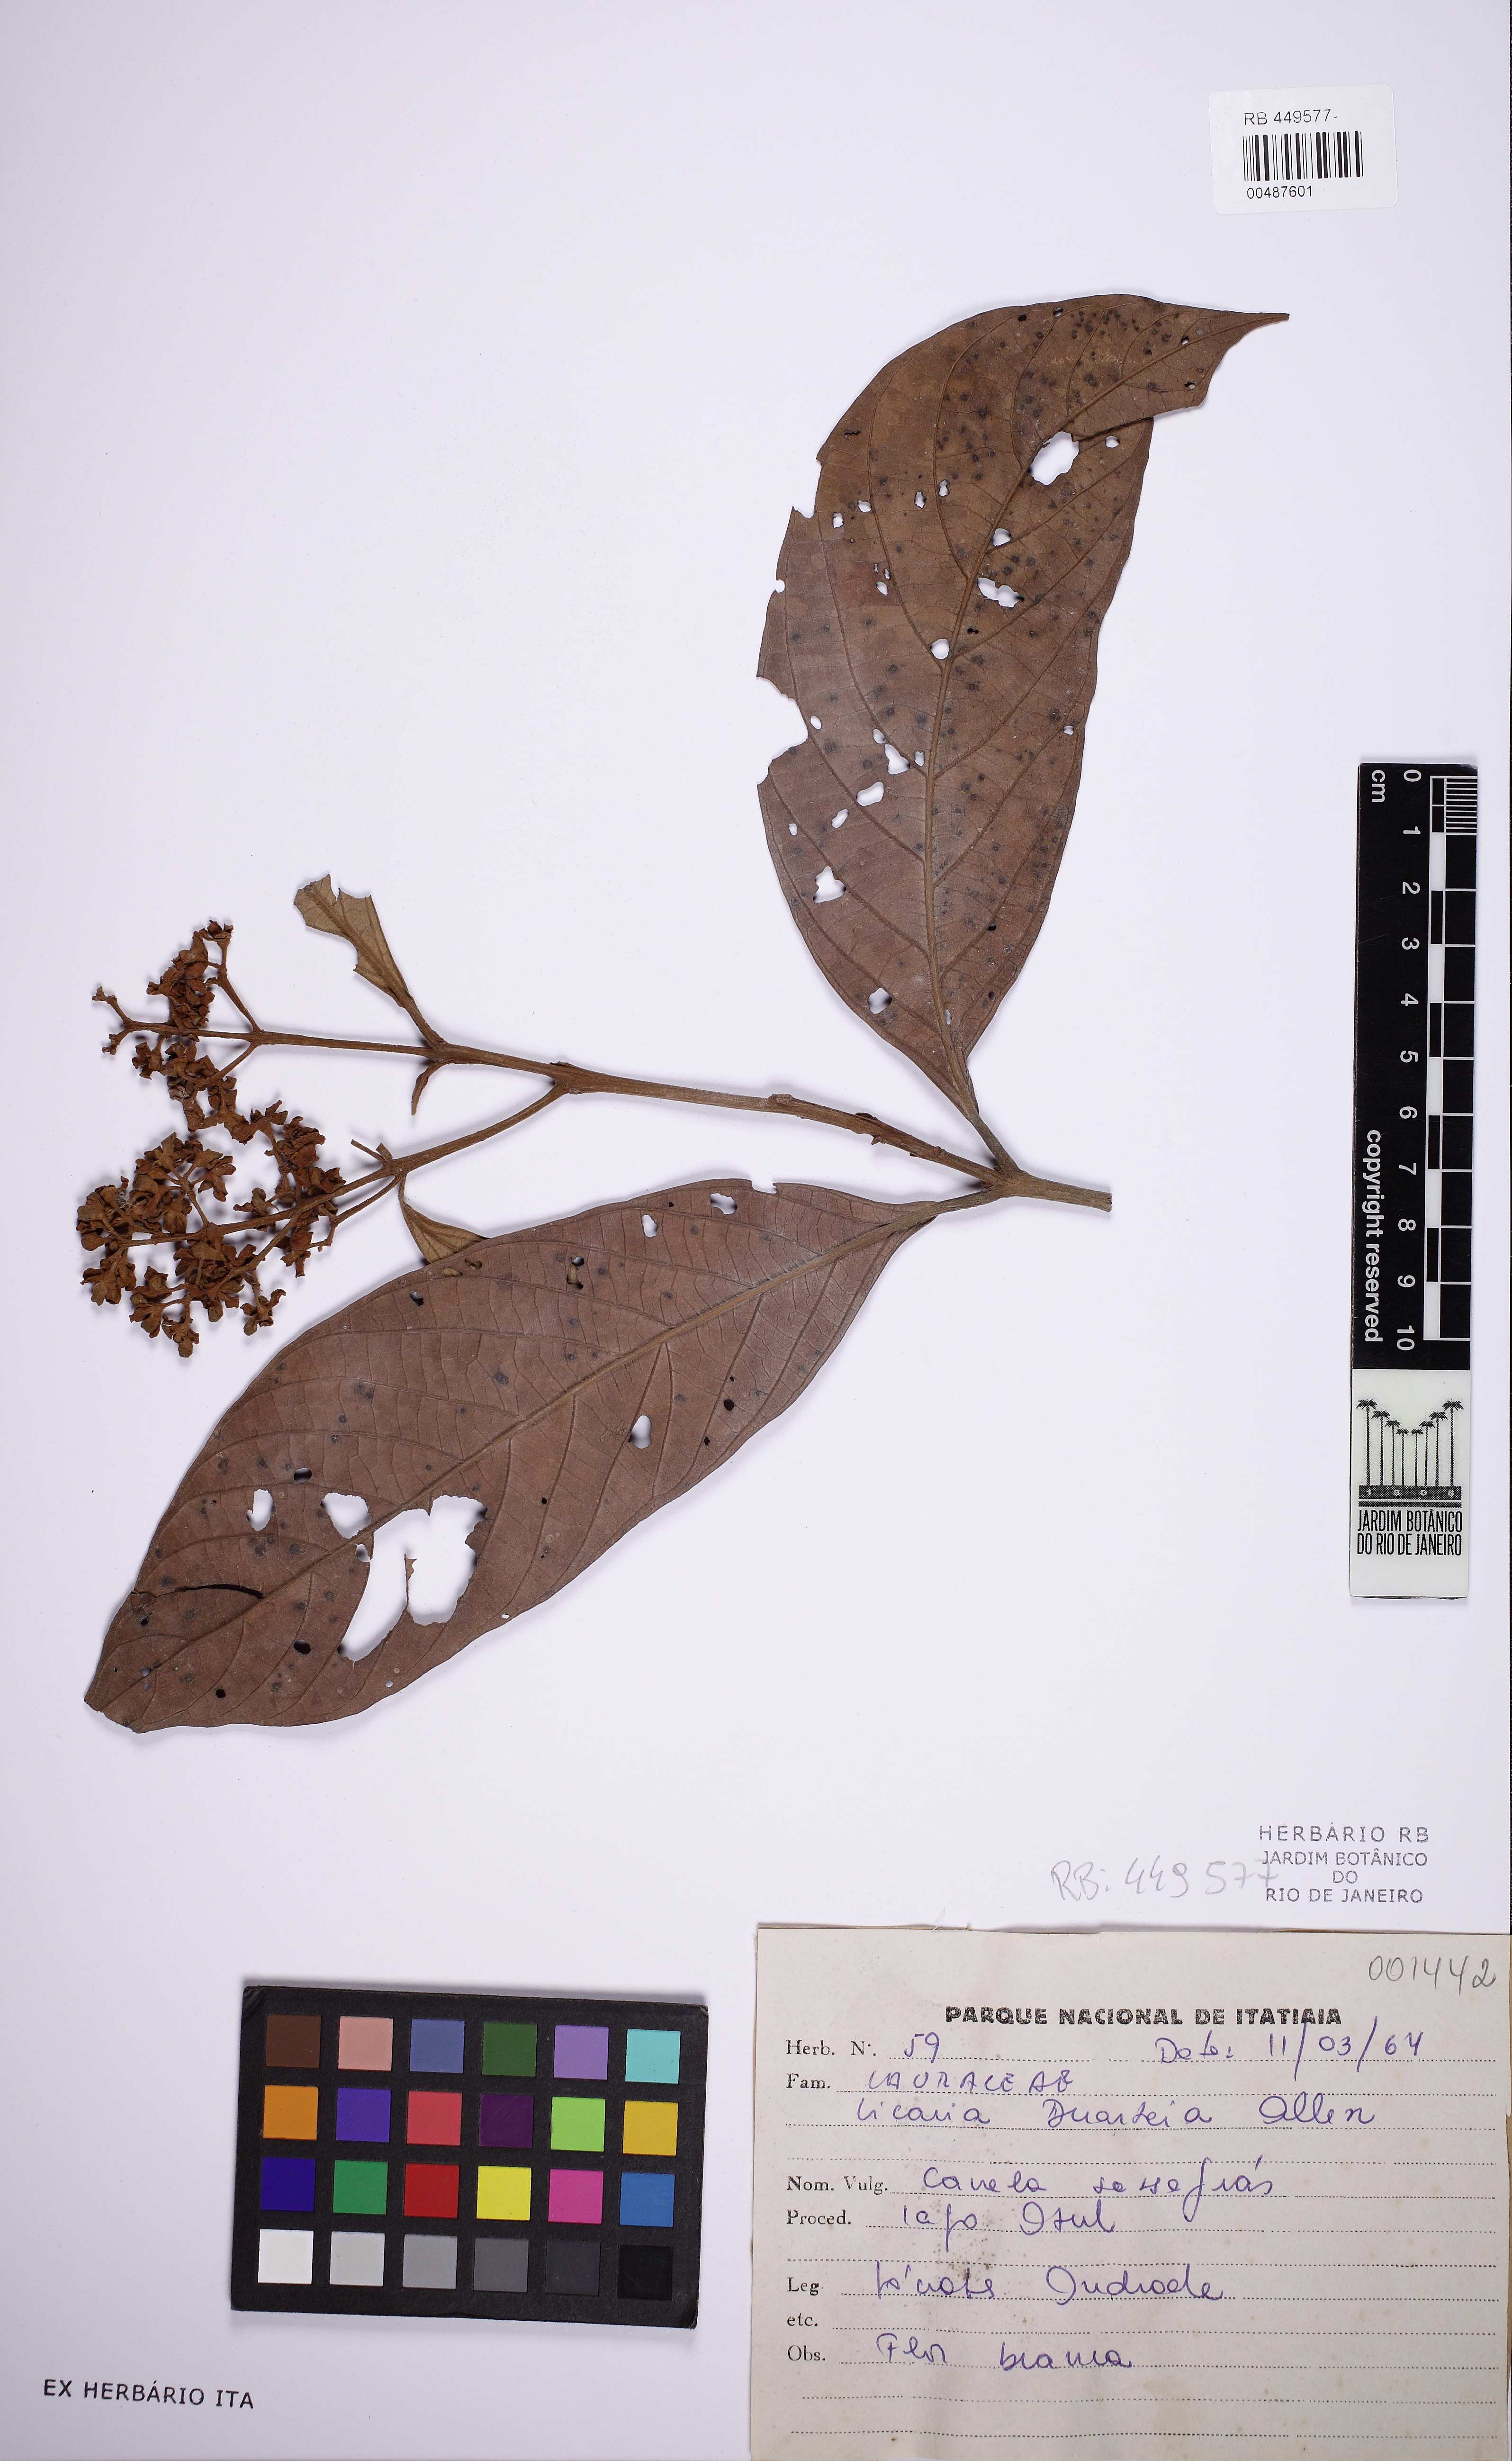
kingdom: Plantae
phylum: Tracheophyta
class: Magnoliopsida
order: Laurales
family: Lauraceae
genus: Licaria
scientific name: Licaria guianensis
